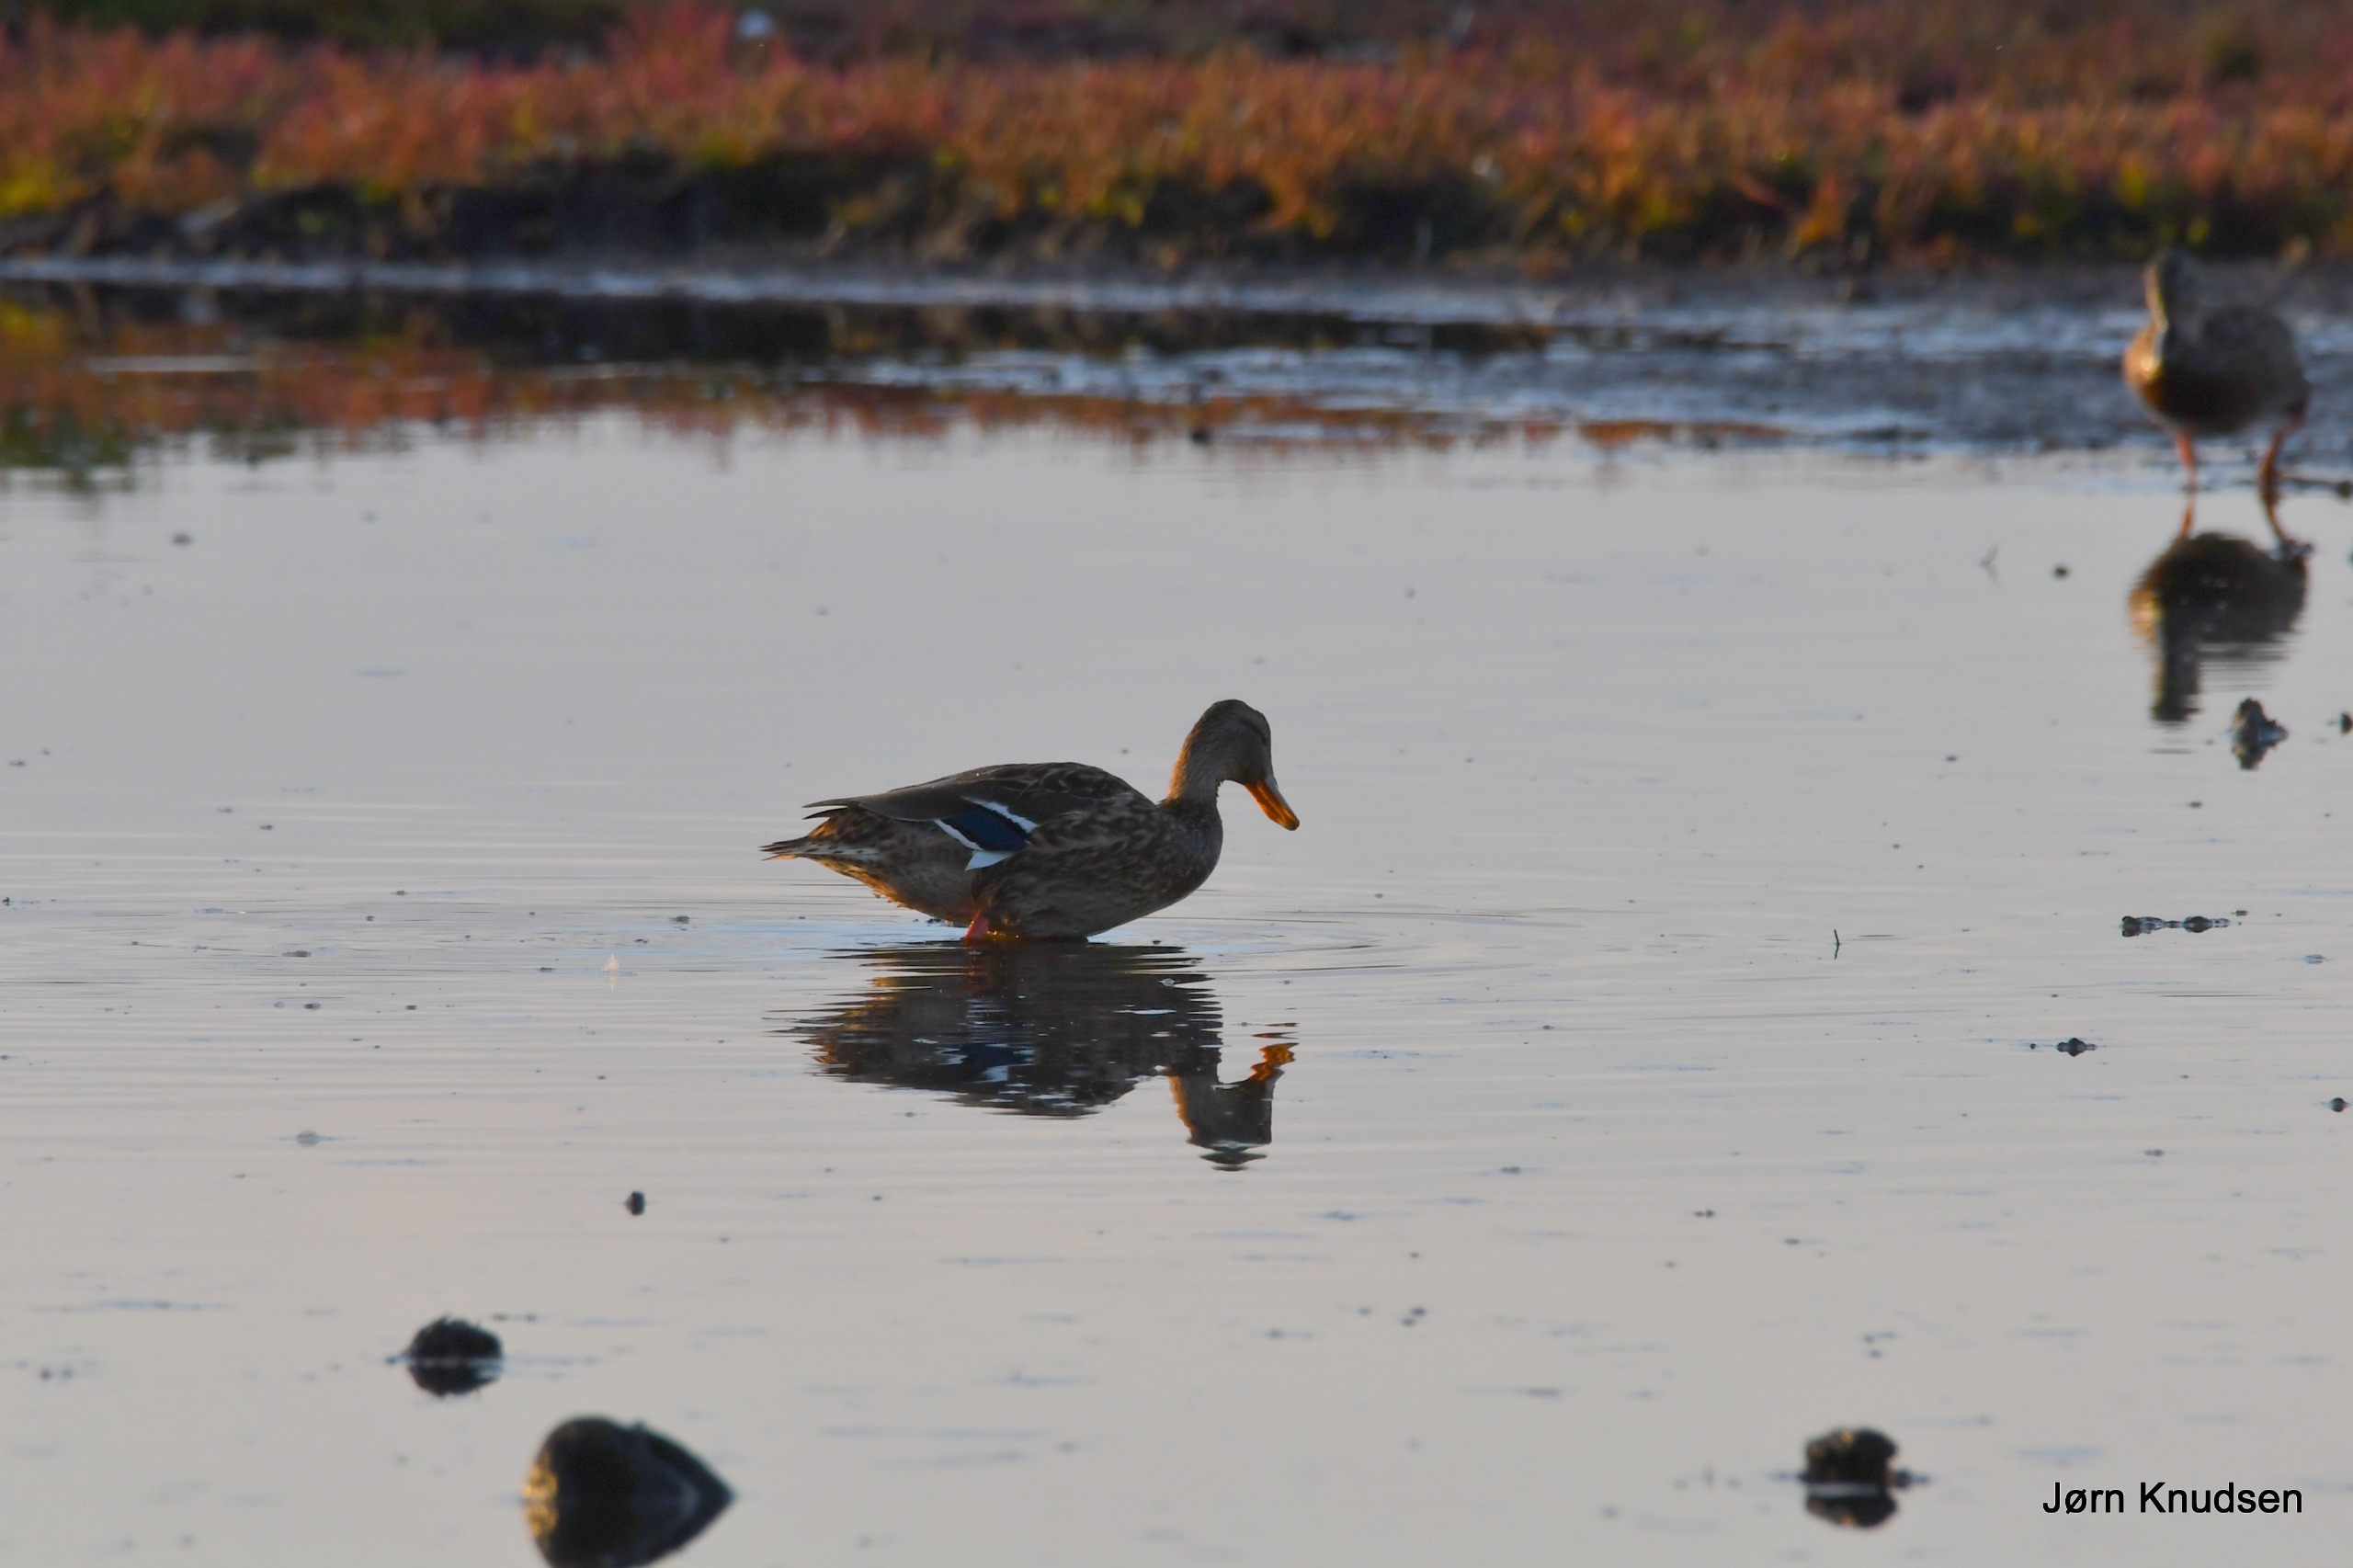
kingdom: Animalia
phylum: Chordata
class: Aves
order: Anseriformes
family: Anatidae
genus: Anas
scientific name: Anas platyrhynchos
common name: Gråand
